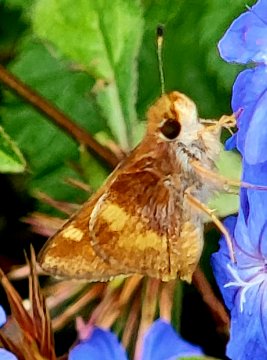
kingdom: Animalia
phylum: Arthropoda
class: Insecta
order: Lepidoptera
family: Hesperiidae
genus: Lon
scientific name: Lon melane
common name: Umber Skipper
